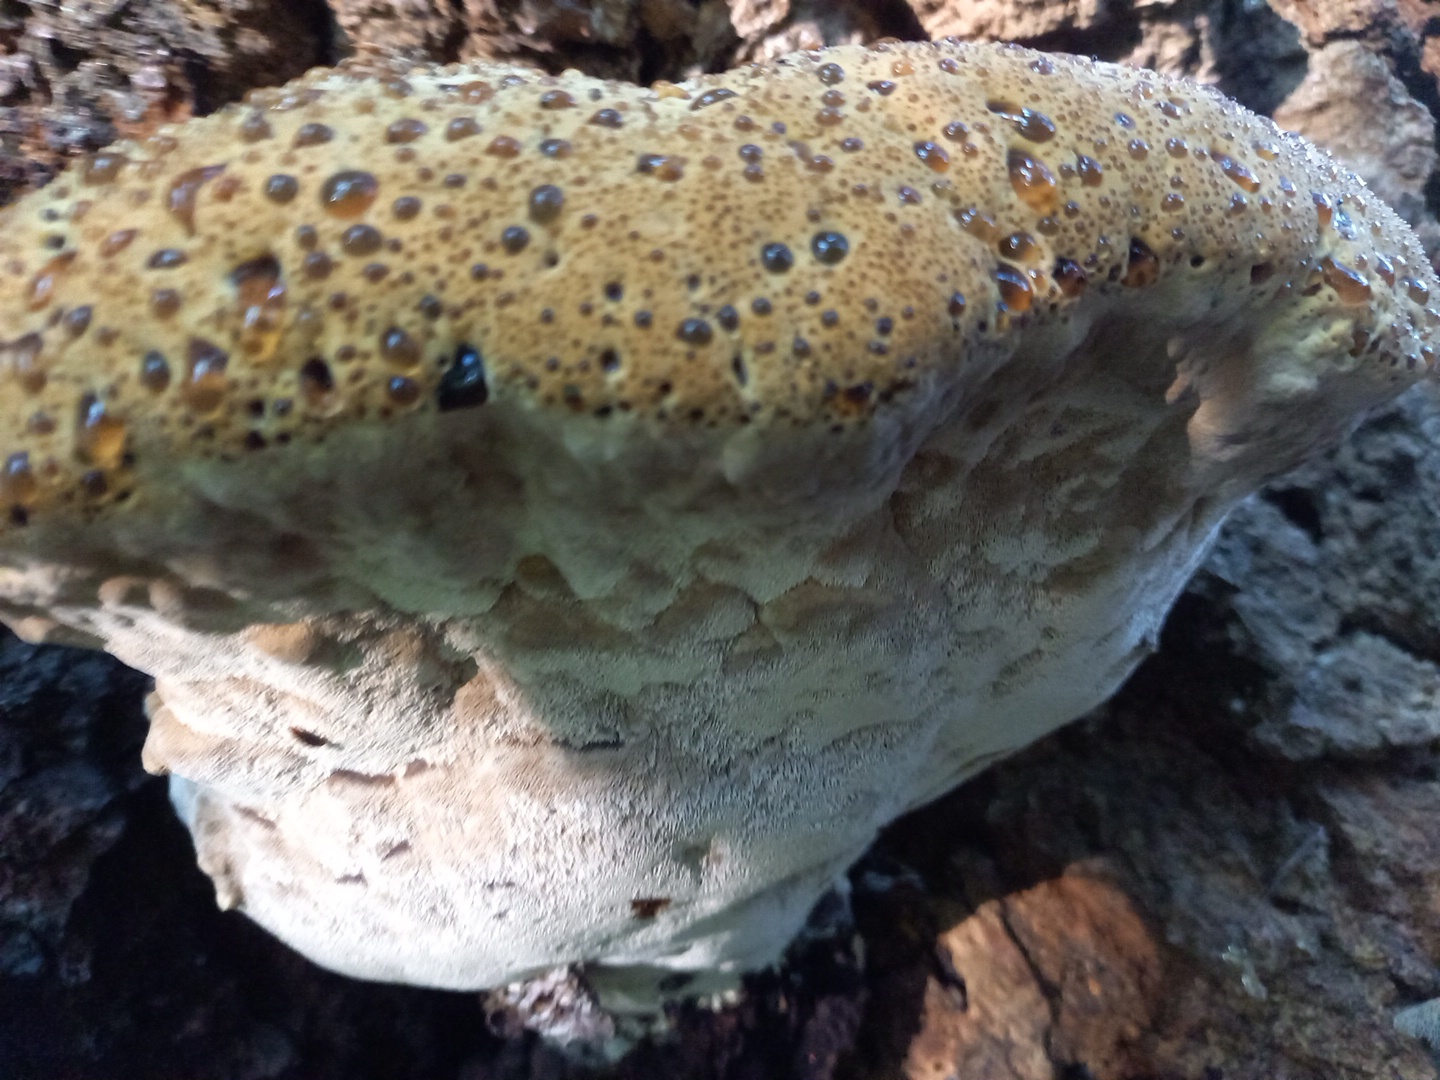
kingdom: Fungi
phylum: Basidiomycota
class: Agaricomycetes
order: Hymenochaetales
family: Hymenochaetaceae
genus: Pseudoinonotus
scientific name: Pseudoinonotus dryadeus
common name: ege-spejlporesvamp
